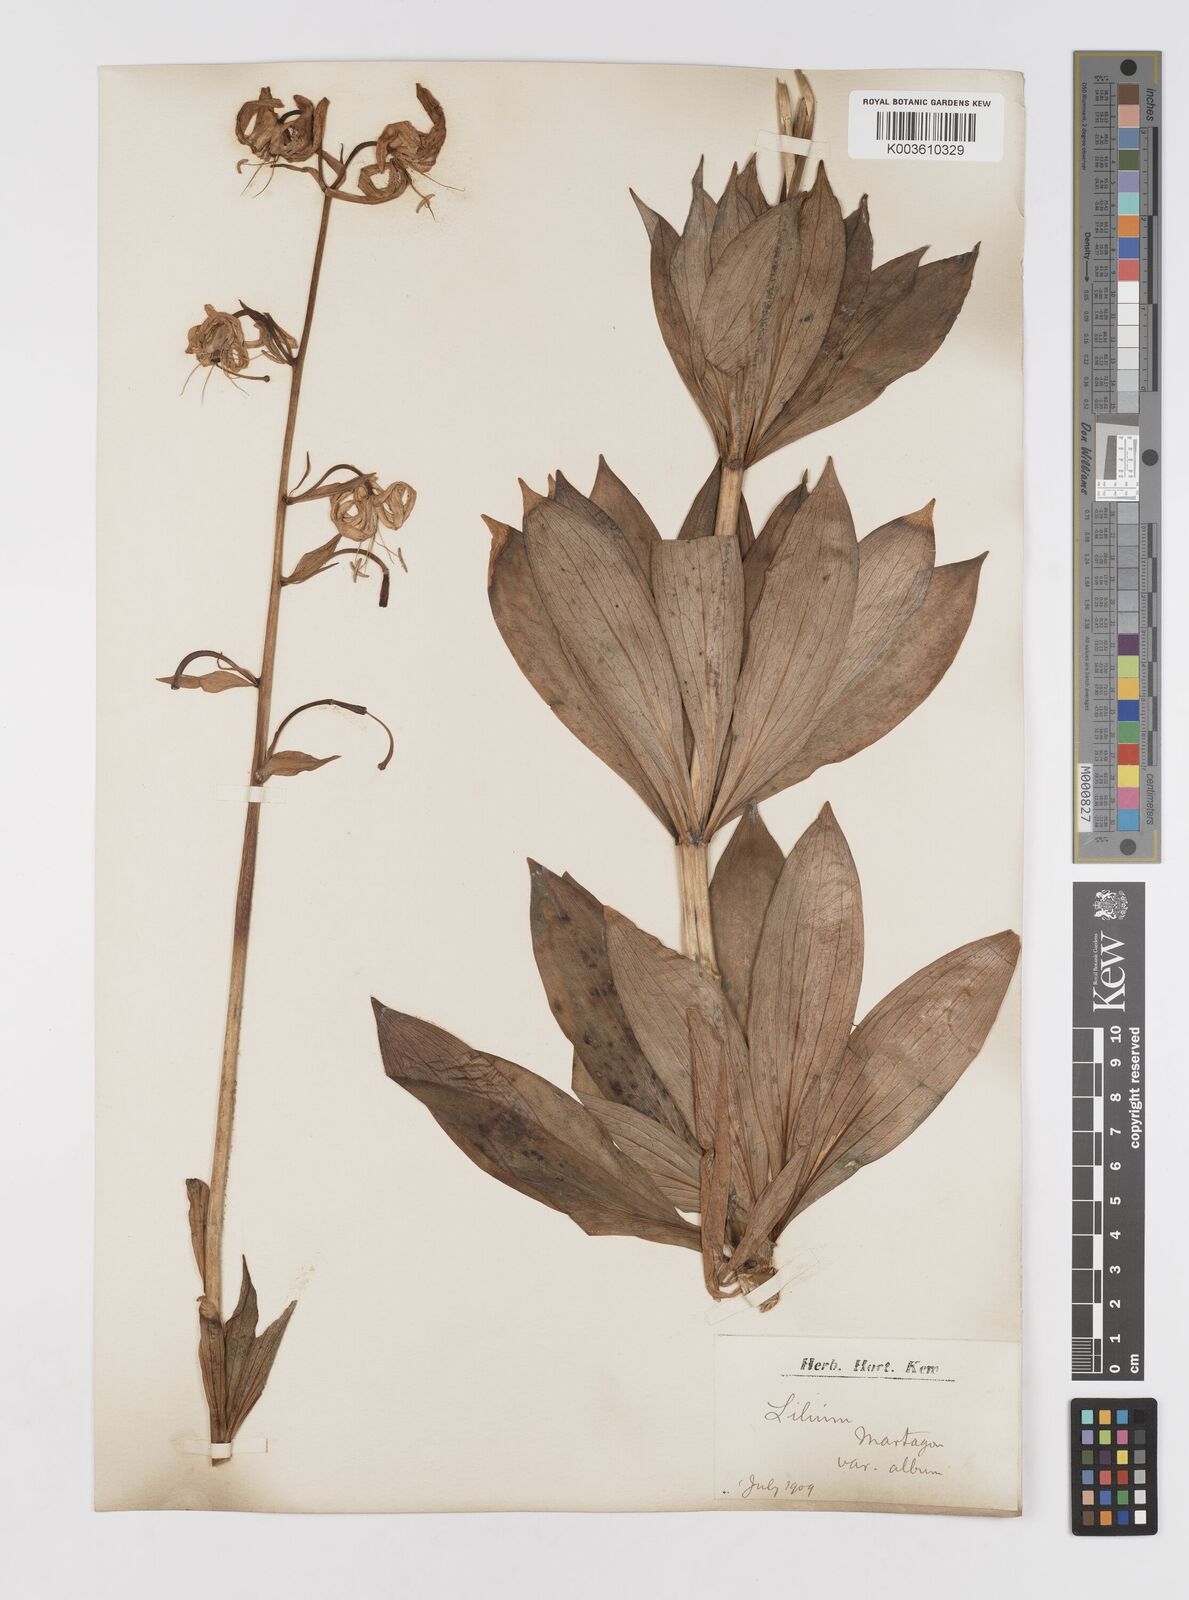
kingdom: Plantae
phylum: Tracheophyta
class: Liliopsida
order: Liliales
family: Liliaceae
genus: Lilium
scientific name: Lilium martagon
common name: Martagon lily
